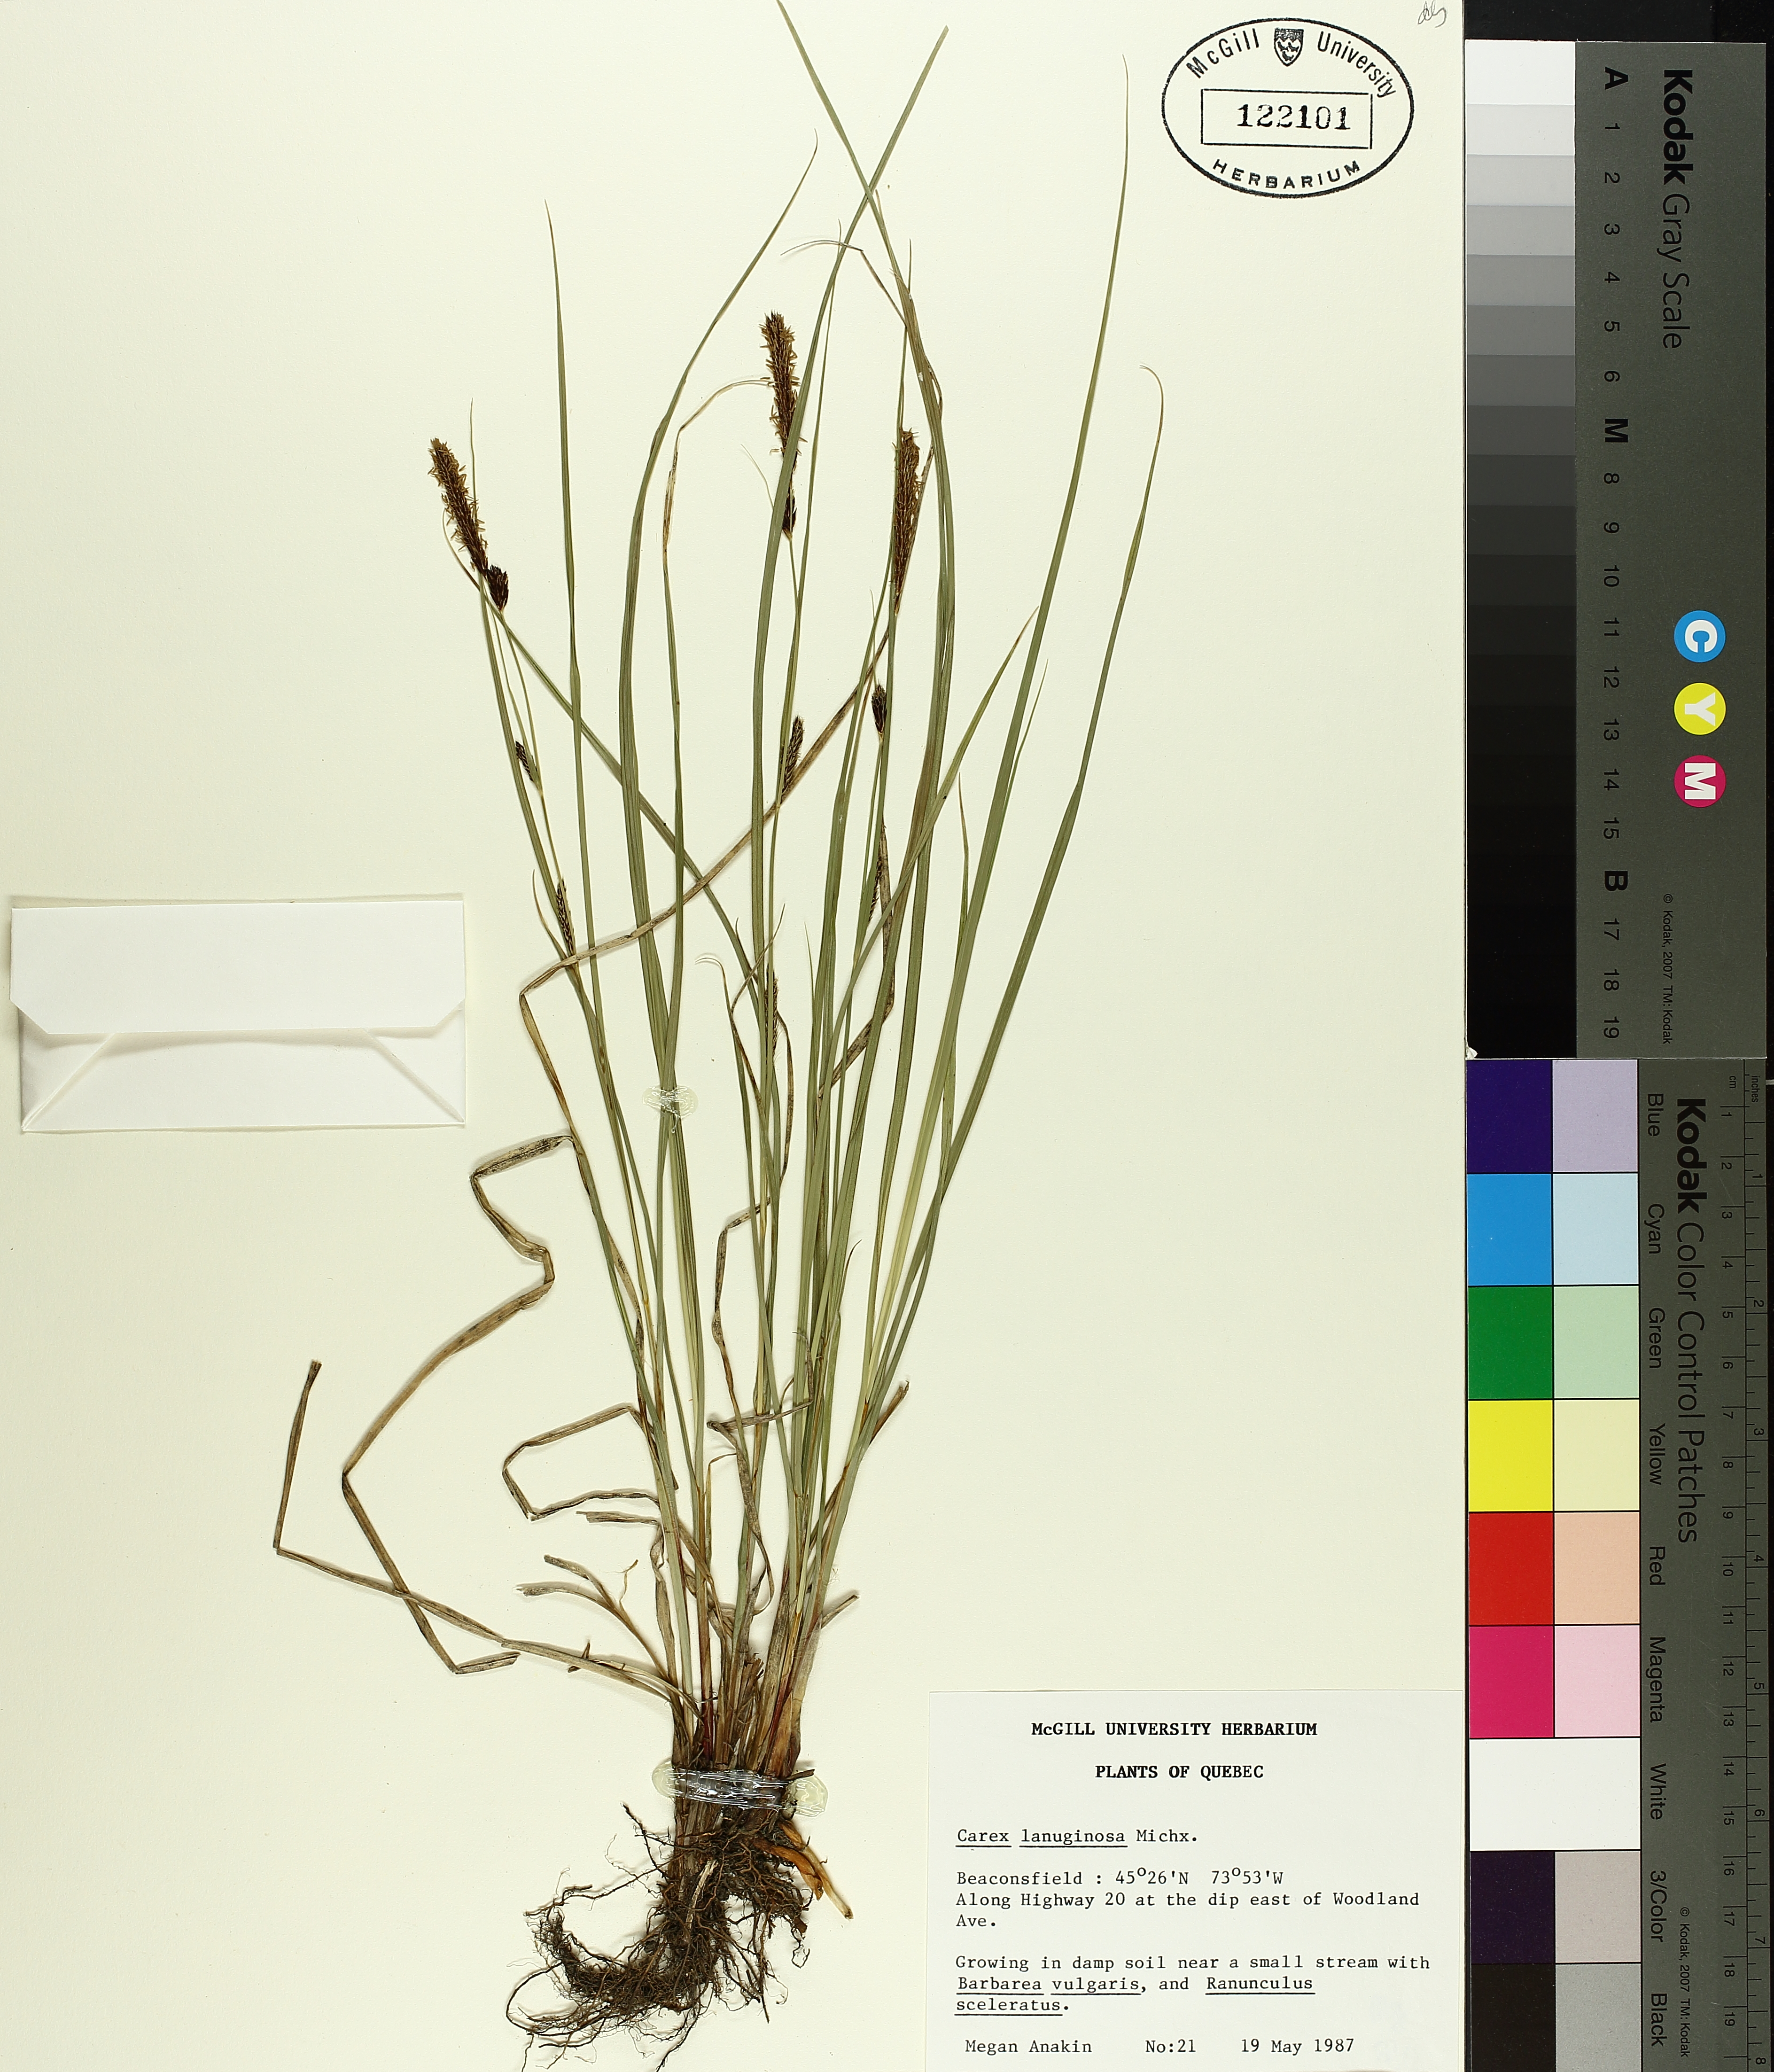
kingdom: Plantae
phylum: Tracheophyta
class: Liliopsida
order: Poales
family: Cyperaceae
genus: Carex
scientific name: Carex pellita
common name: Woolly sedge
